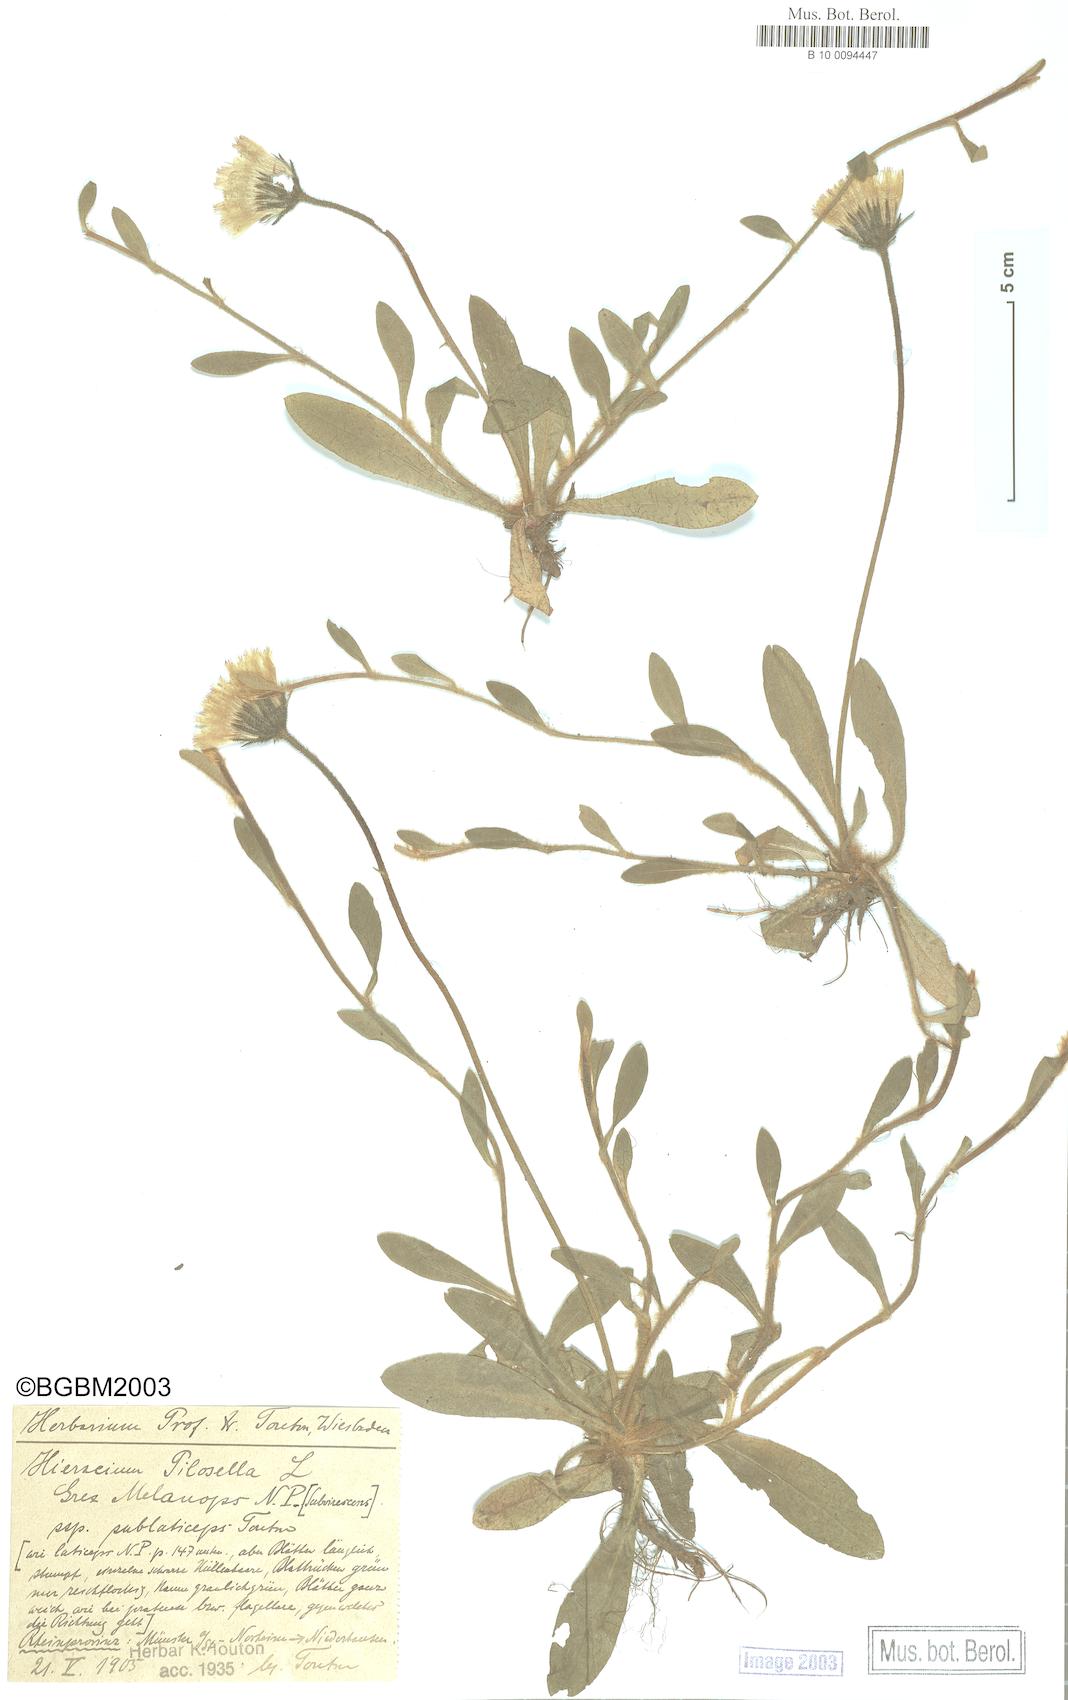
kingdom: Plantae
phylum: Tracheophyta
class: Magnoliopsida
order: Asterales
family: Asteraceae
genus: Pilosella
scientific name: Pilosella officinarum
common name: Mouse-ear hawkweed
